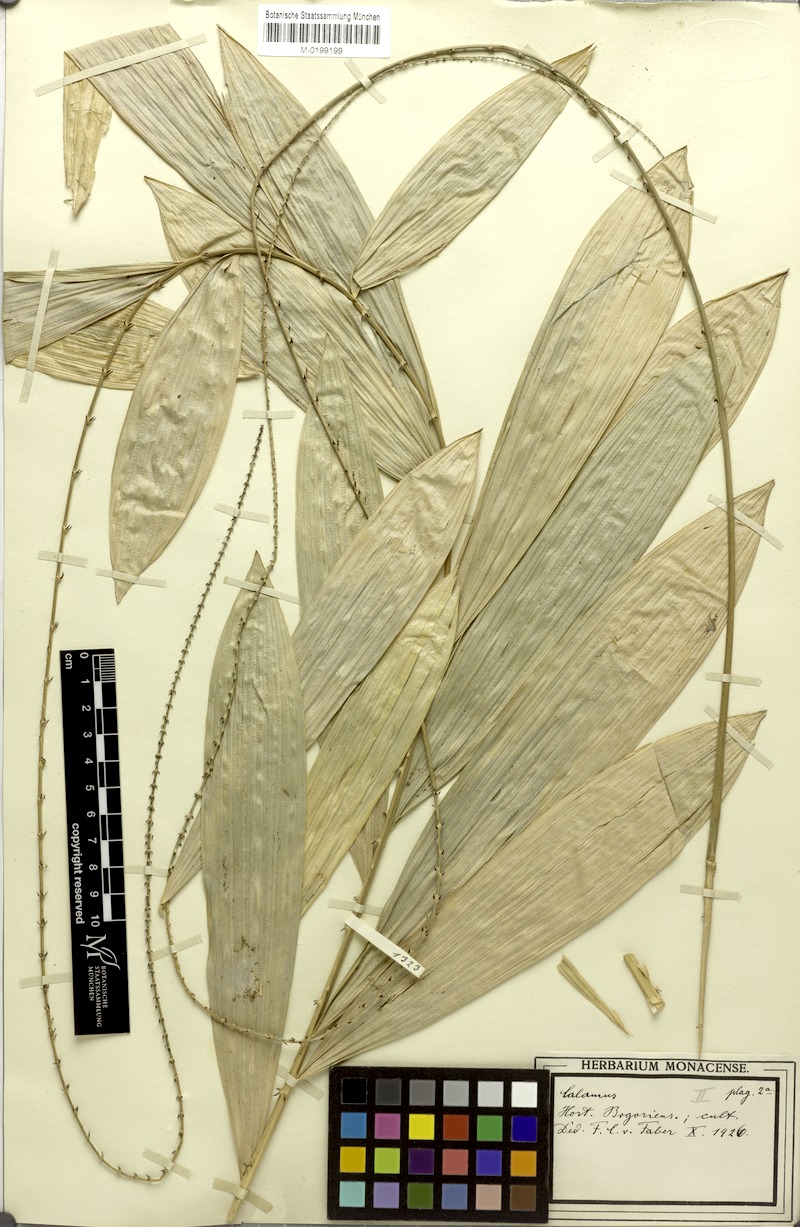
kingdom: Plantae
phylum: Tracheophyta
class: Liliopsida
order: Arecales
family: Arecaceae
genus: Calamus
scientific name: Calamus
